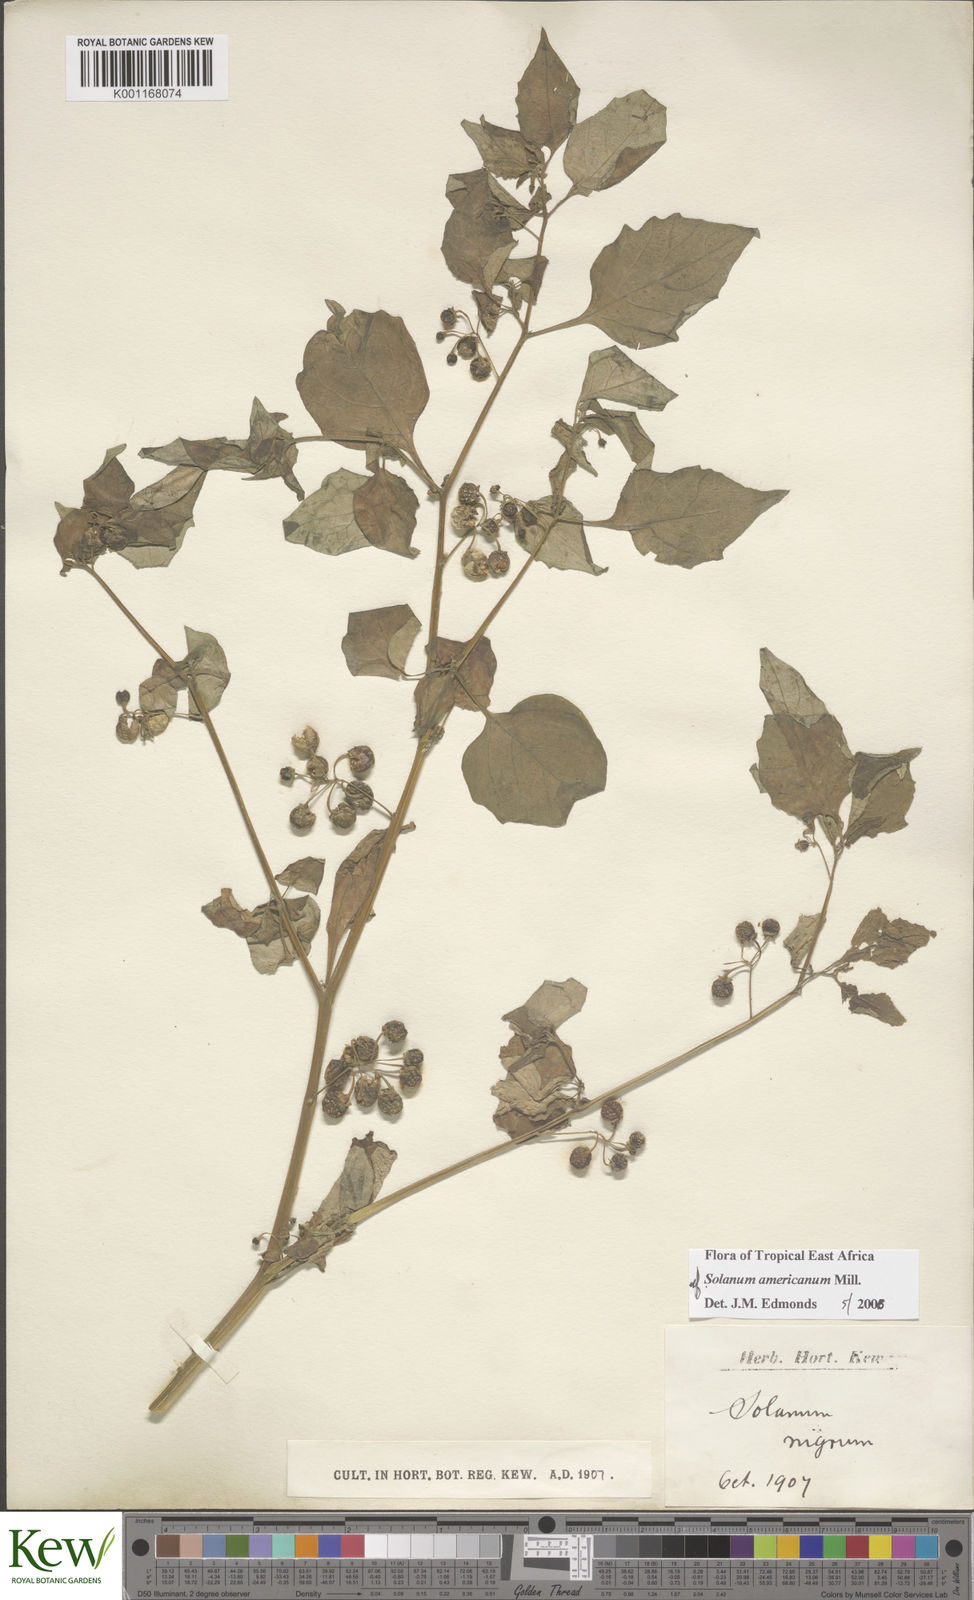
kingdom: Plantae
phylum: Tracheophyta
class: Magnoliopsida
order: Solanales
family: Solanaceae
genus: Solanum
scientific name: Solanum americanum
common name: American black nightshade
